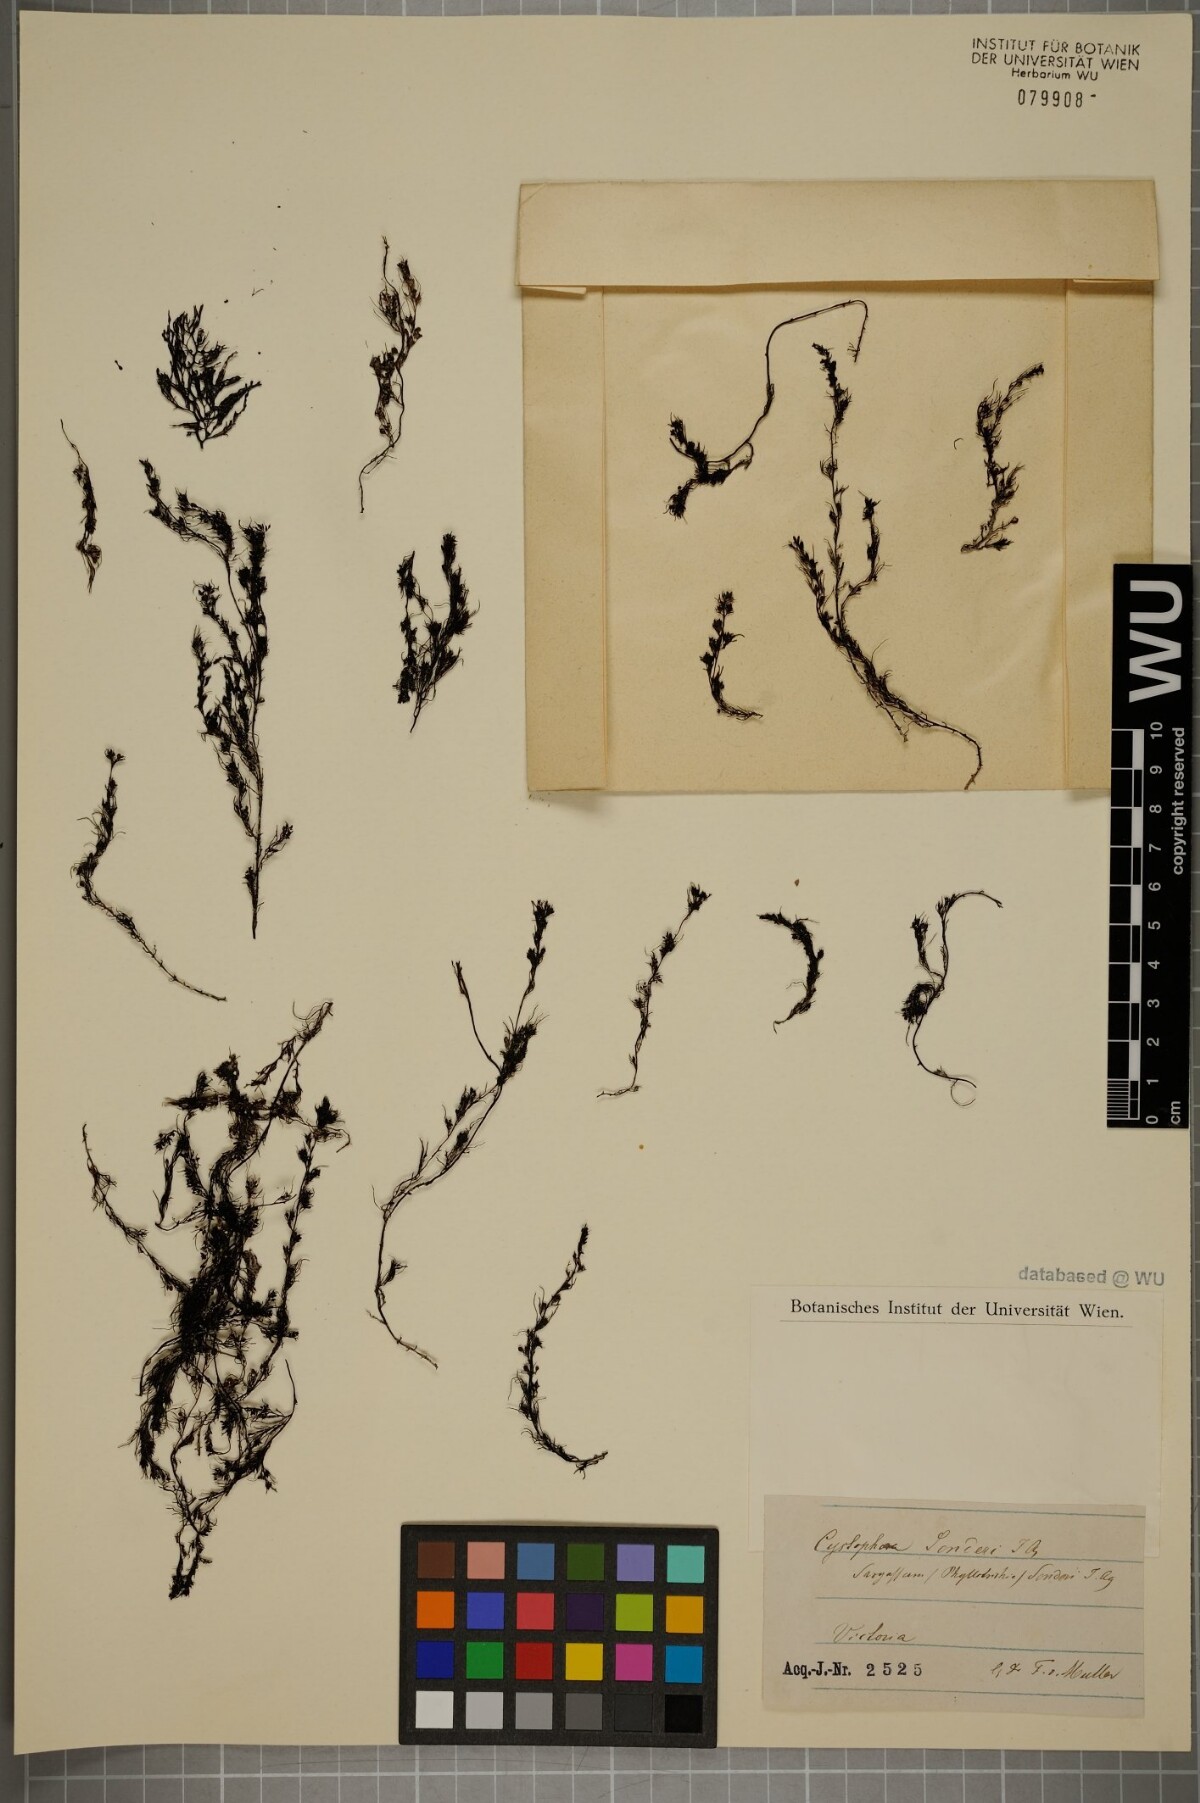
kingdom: Chromista
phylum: Ochrophyta
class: Phaeophyceae
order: Fucales
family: Sargassaceae
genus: Cystophora
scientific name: Cystophora
